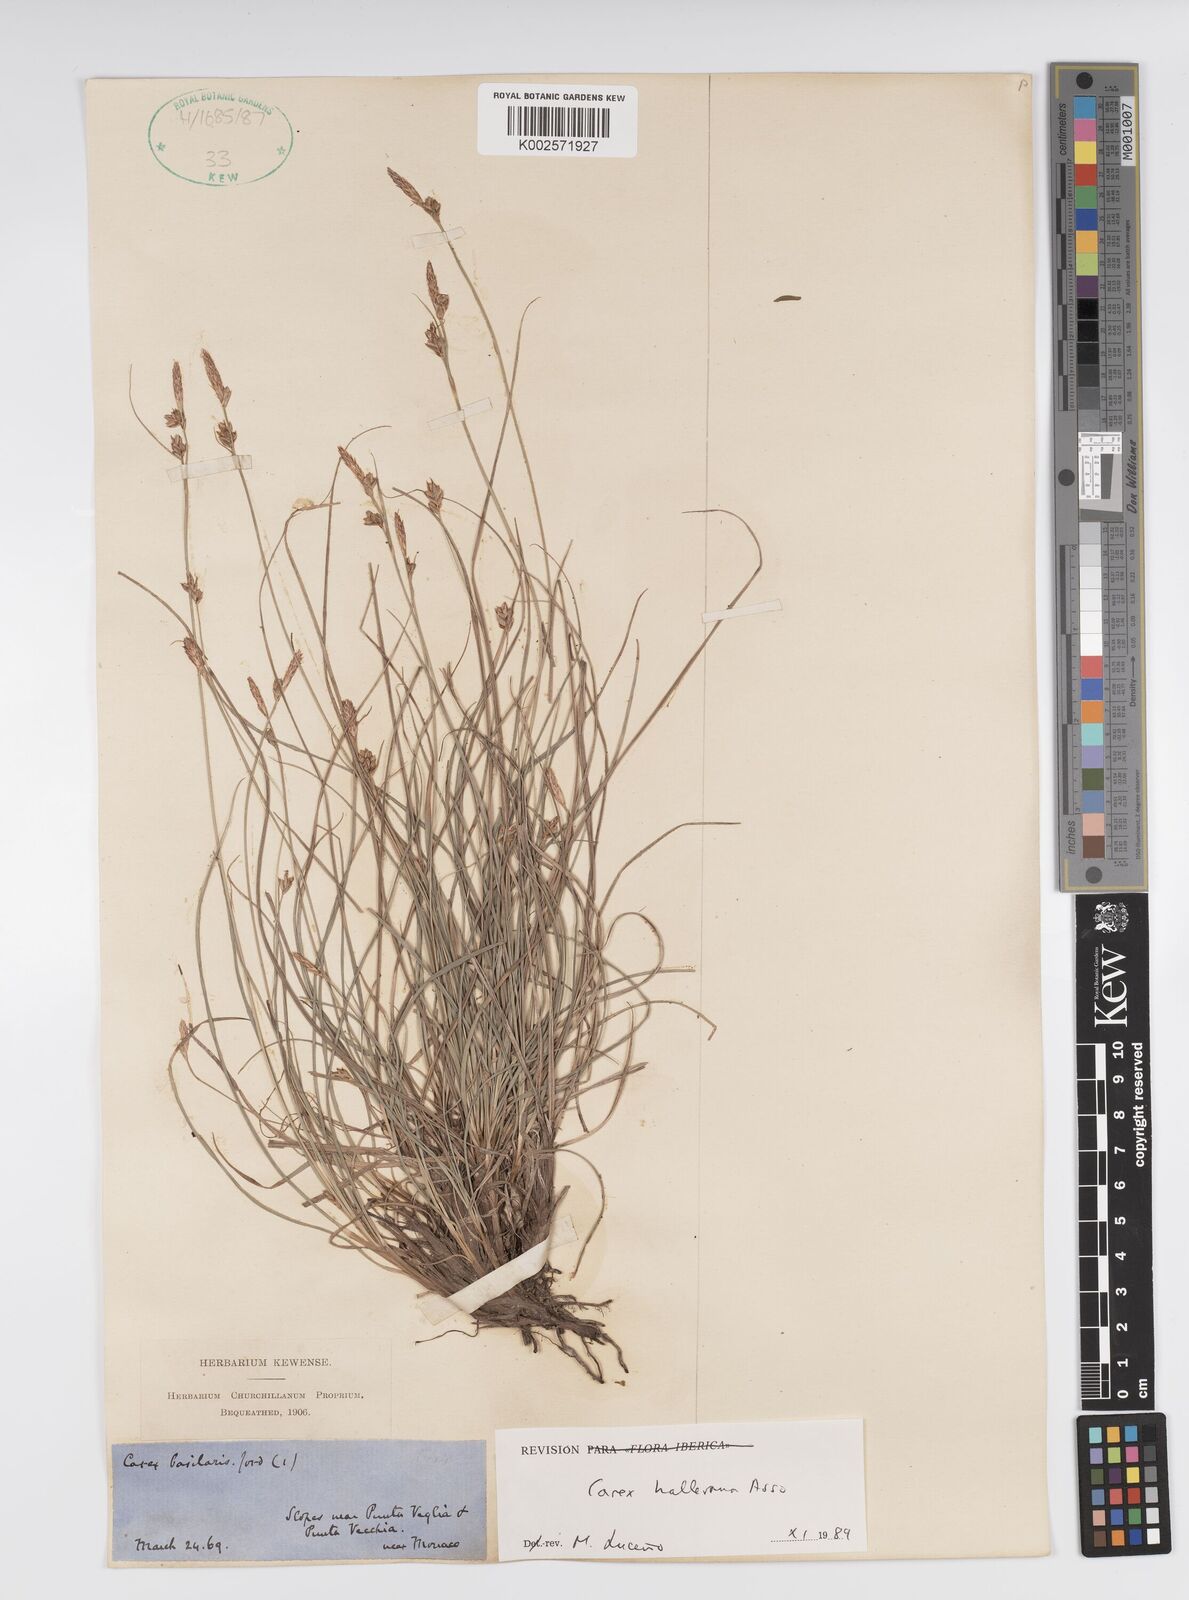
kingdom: Plantae
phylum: Tracheophyta
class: Liliopsida
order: Poales
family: Cyperaceae
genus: Carex
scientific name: Carex halleriana
